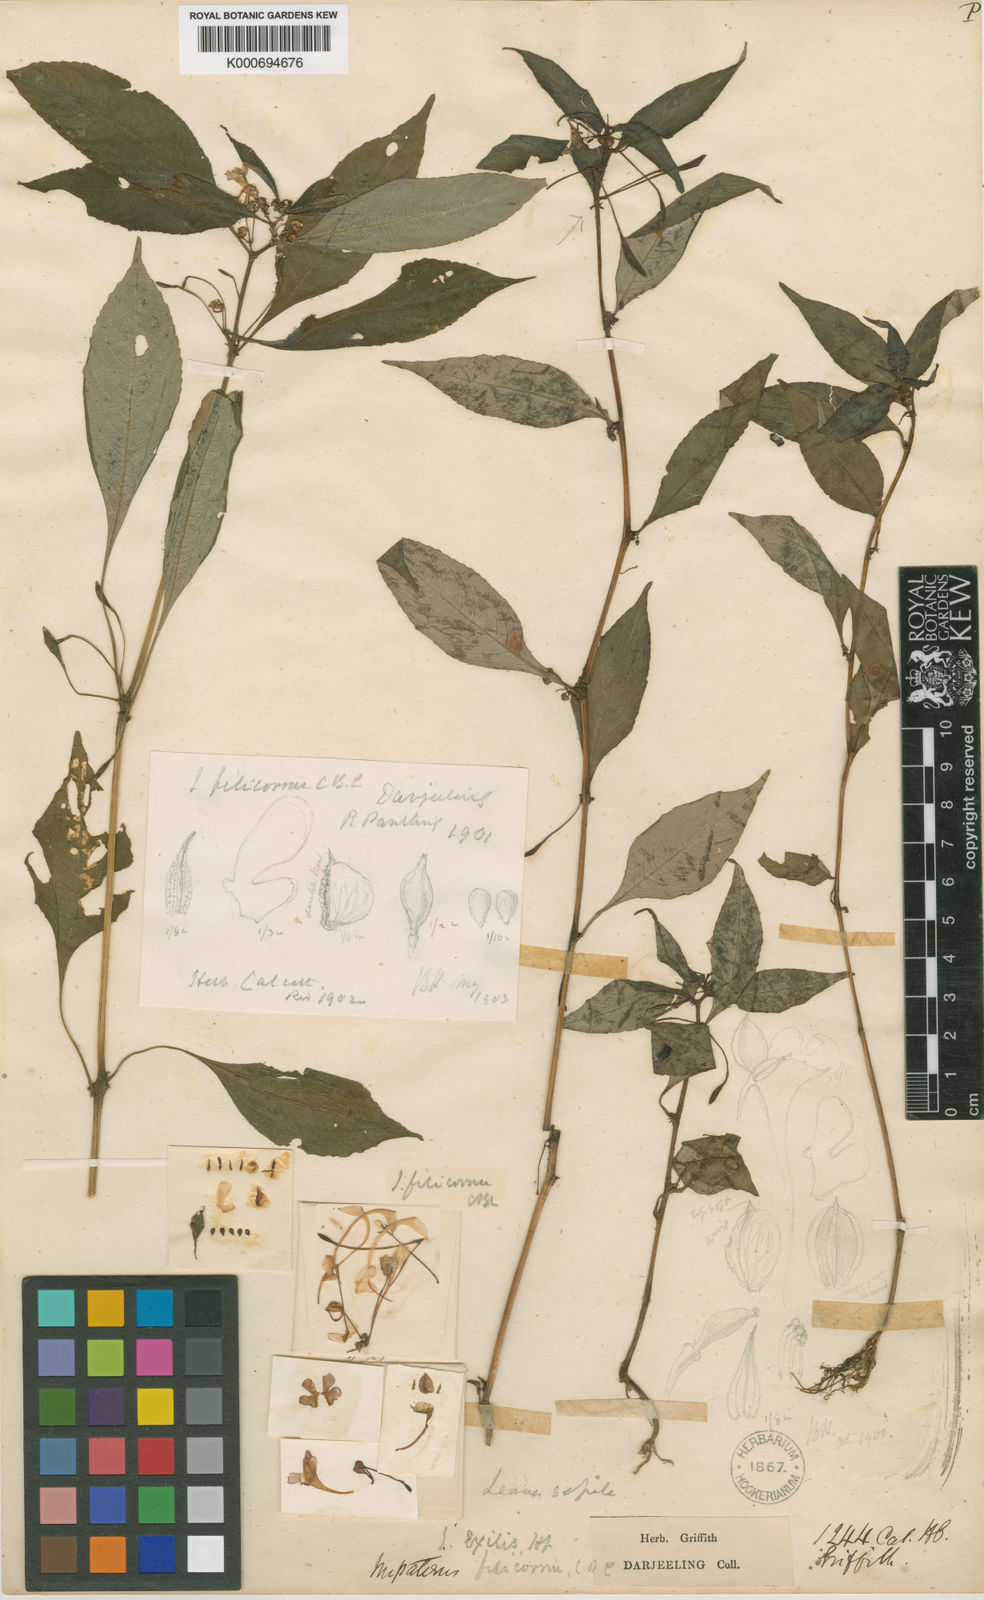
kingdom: Plantae
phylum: Tracheophyta
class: Magnoliopsida
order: Ericales
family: Balsaminaceae
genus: Impatiens
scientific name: Impatiens exilis
